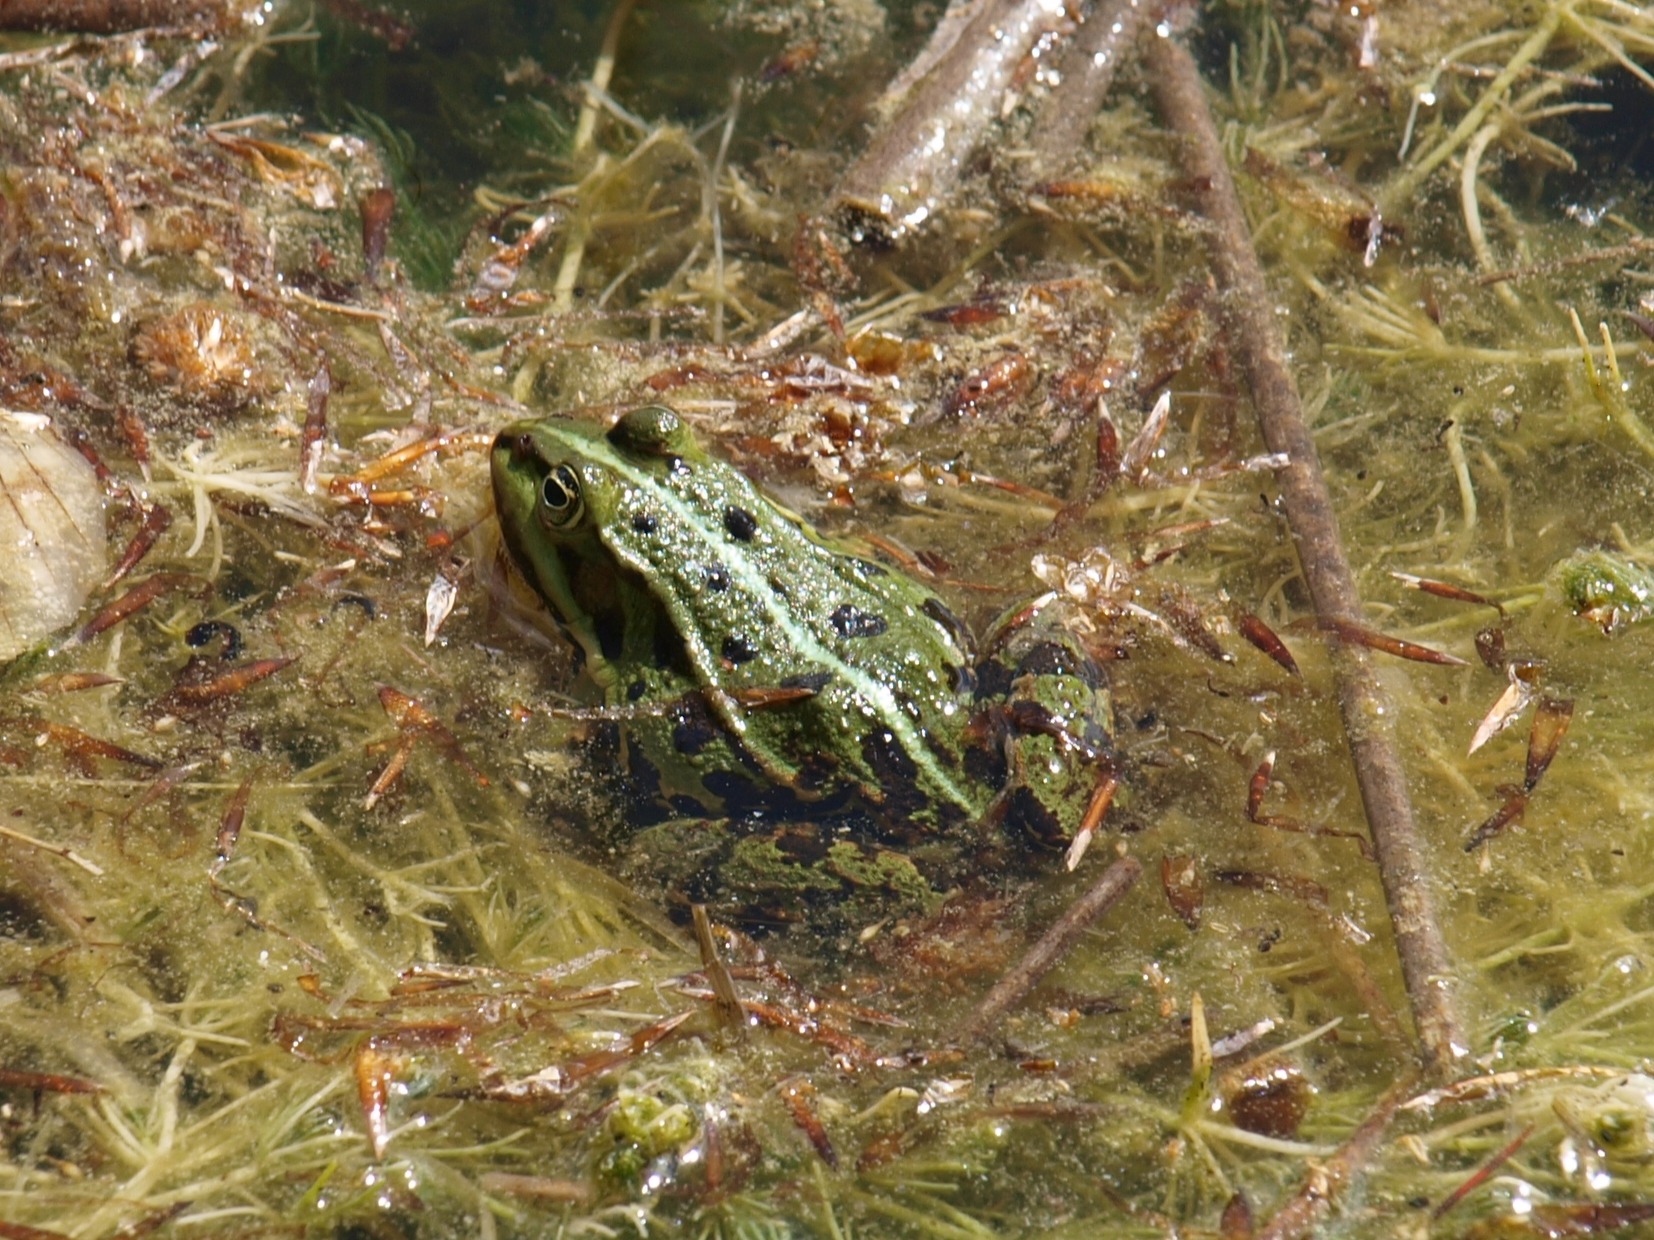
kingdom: Animalia
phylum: Chordata
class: Amphibia
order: Anura
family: Ranidae
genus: Pelophylax
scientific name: Pelophylax lessonae
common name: Grøn frø
